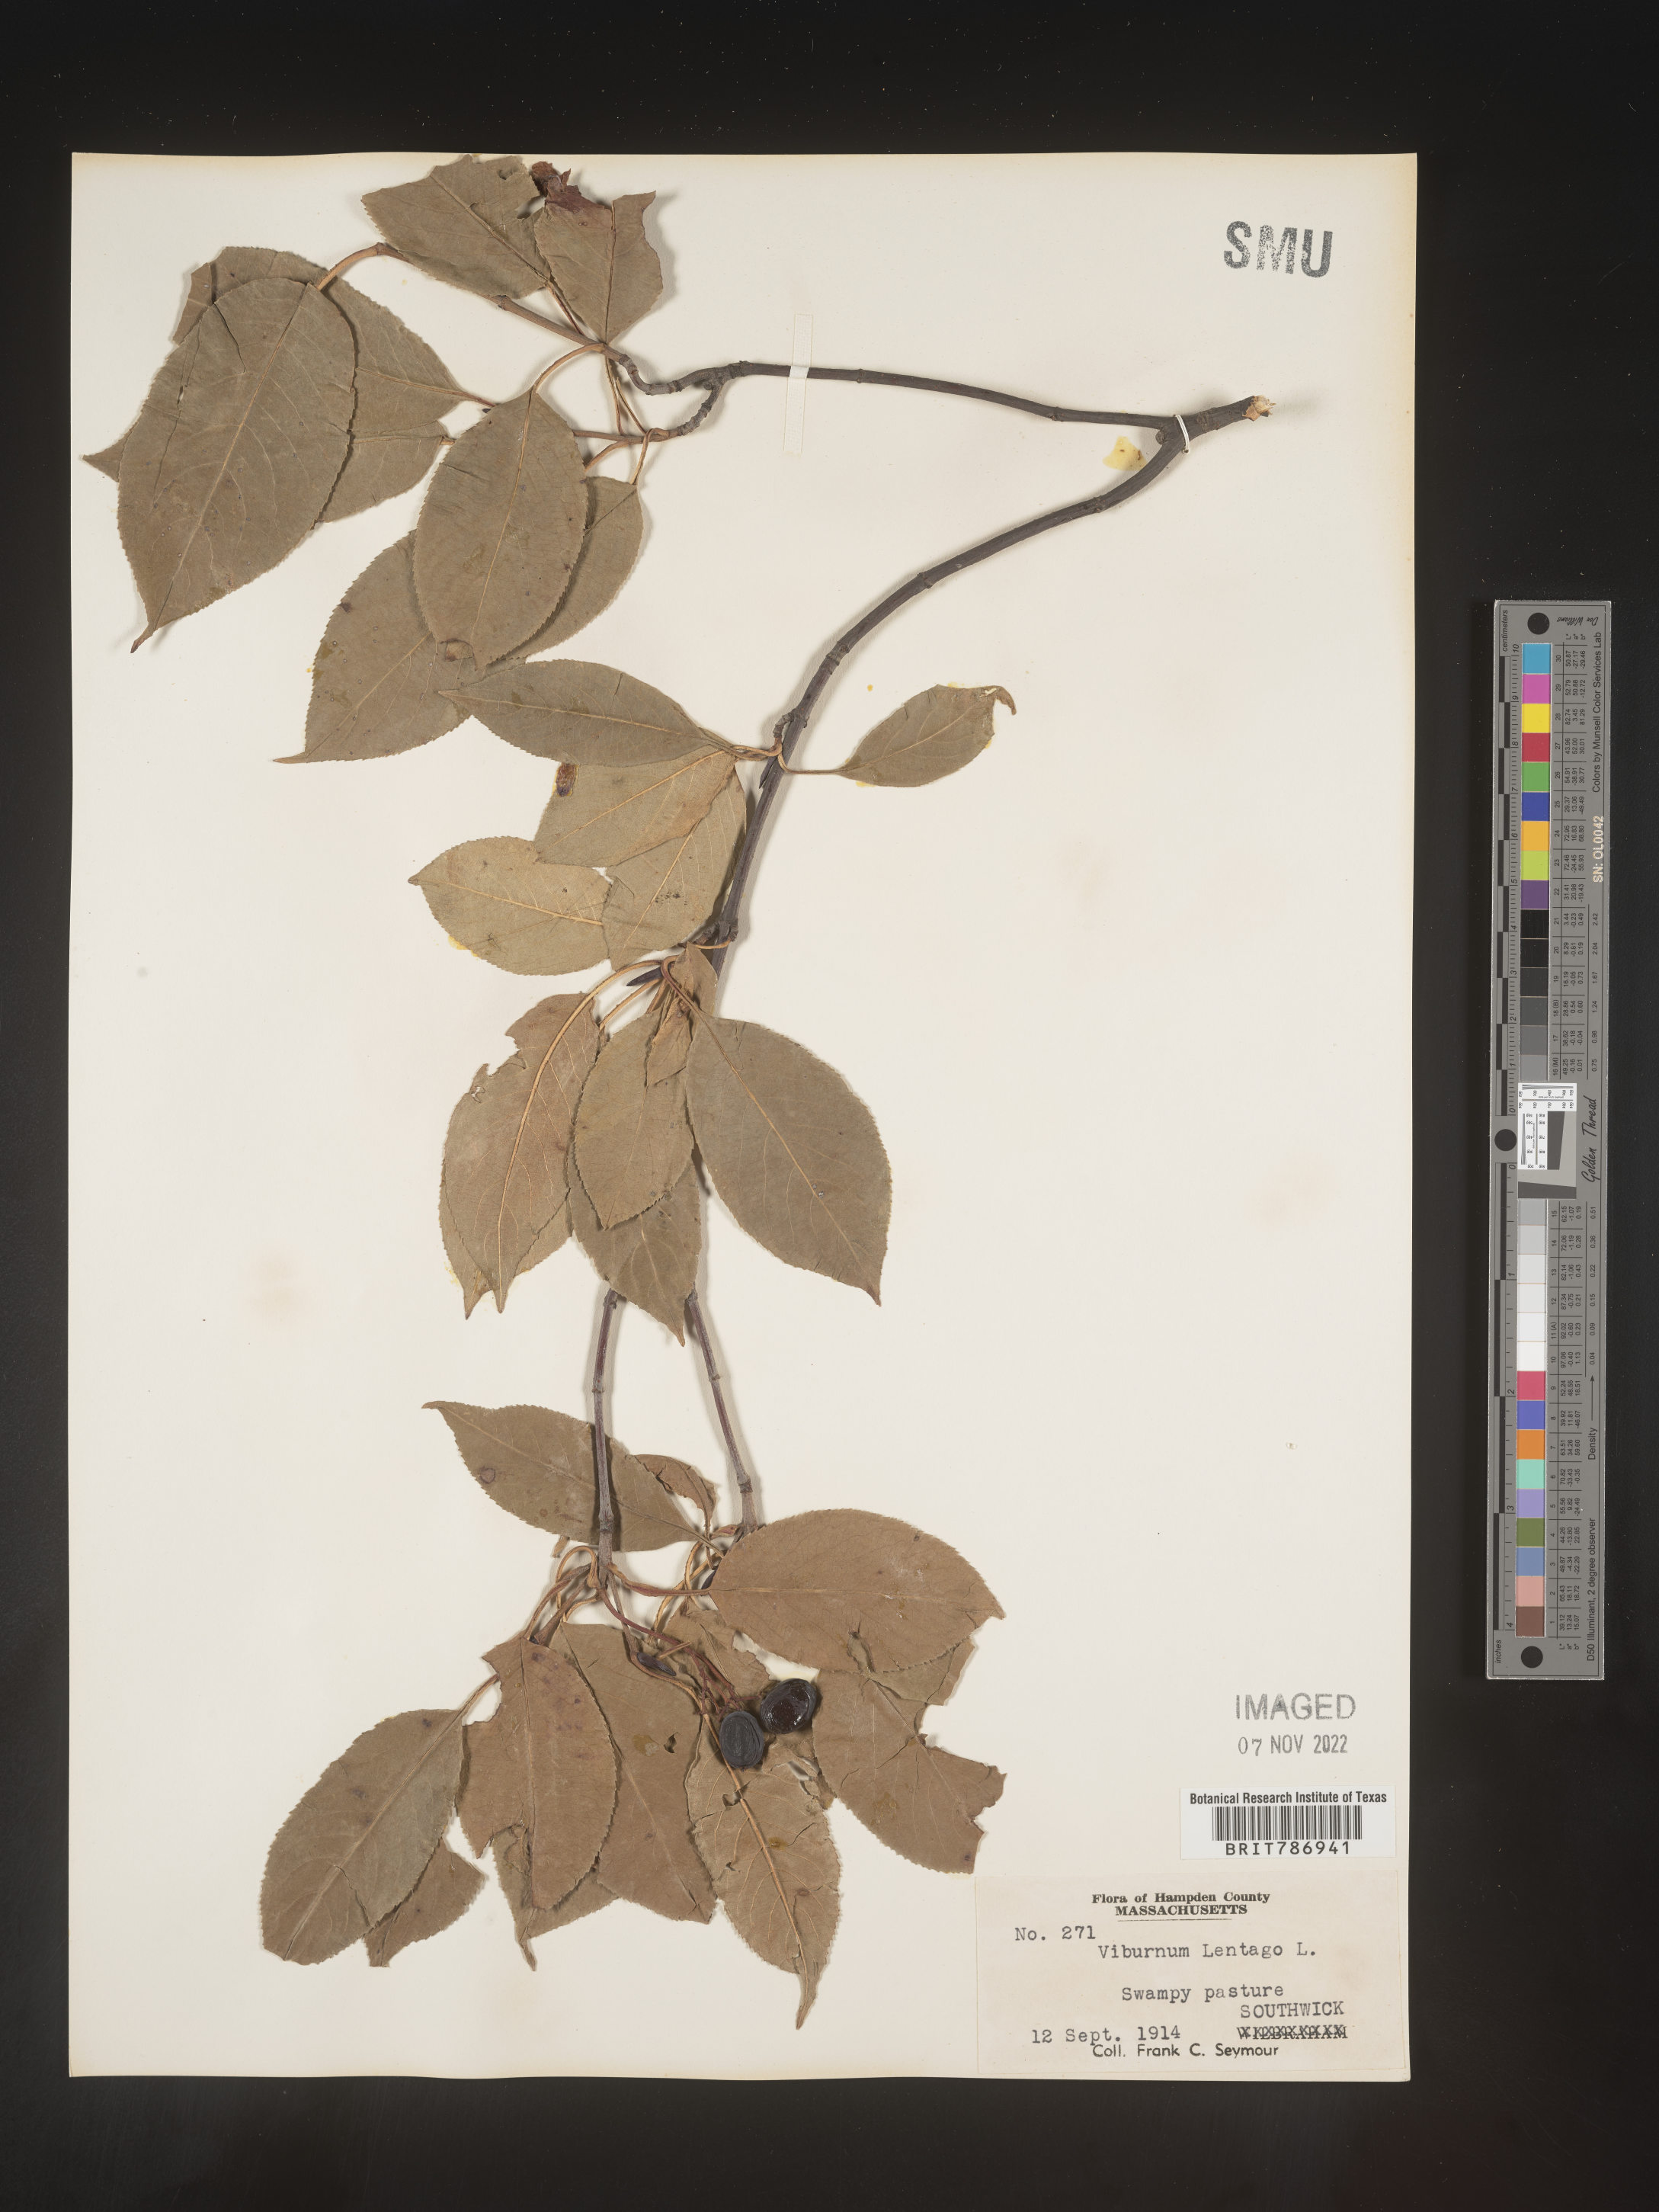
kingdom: Plantae
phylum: Tracheophyta
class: Magnoliopsida
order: Dipsacales
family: Viburnaceae
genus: Viburnum
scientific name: Viburnum lentago
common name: Black haw
